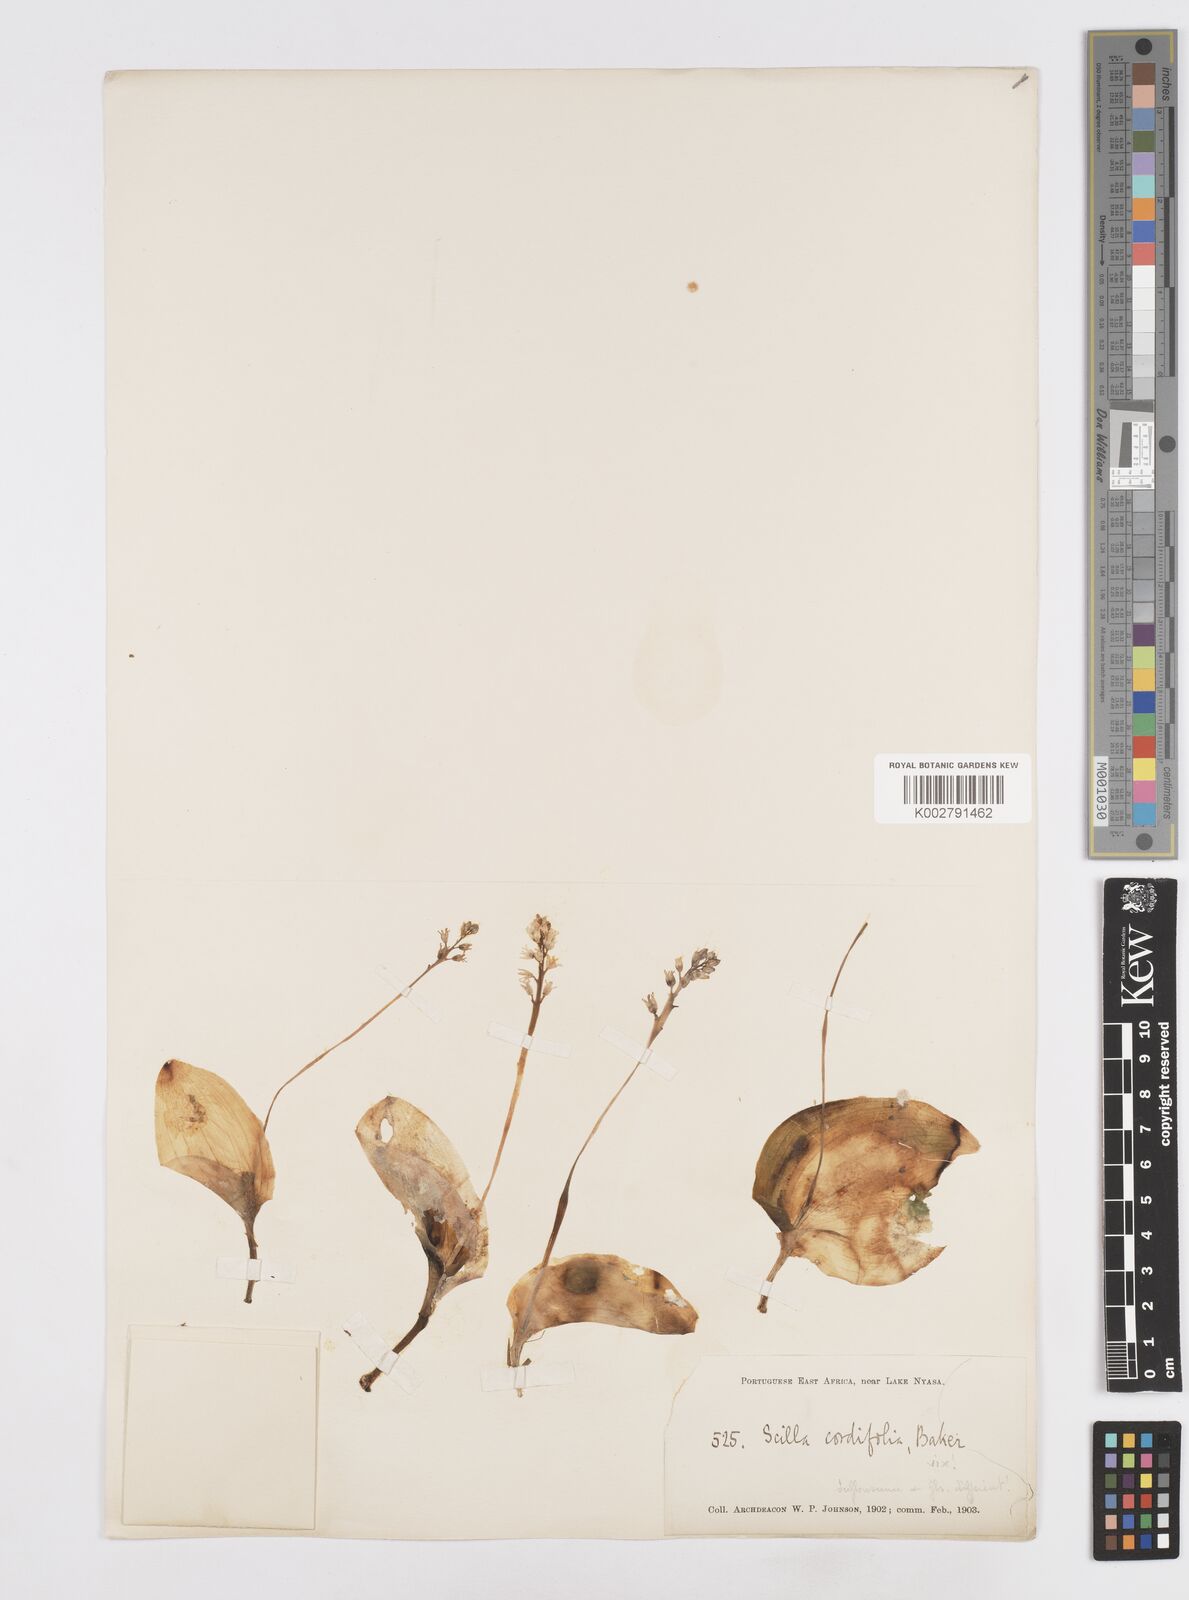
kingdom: Plantae
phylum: Tracheophyta
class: Liliopsida
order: Asparagales
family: Asparagaceae
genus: Scilla
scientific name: Scilla
